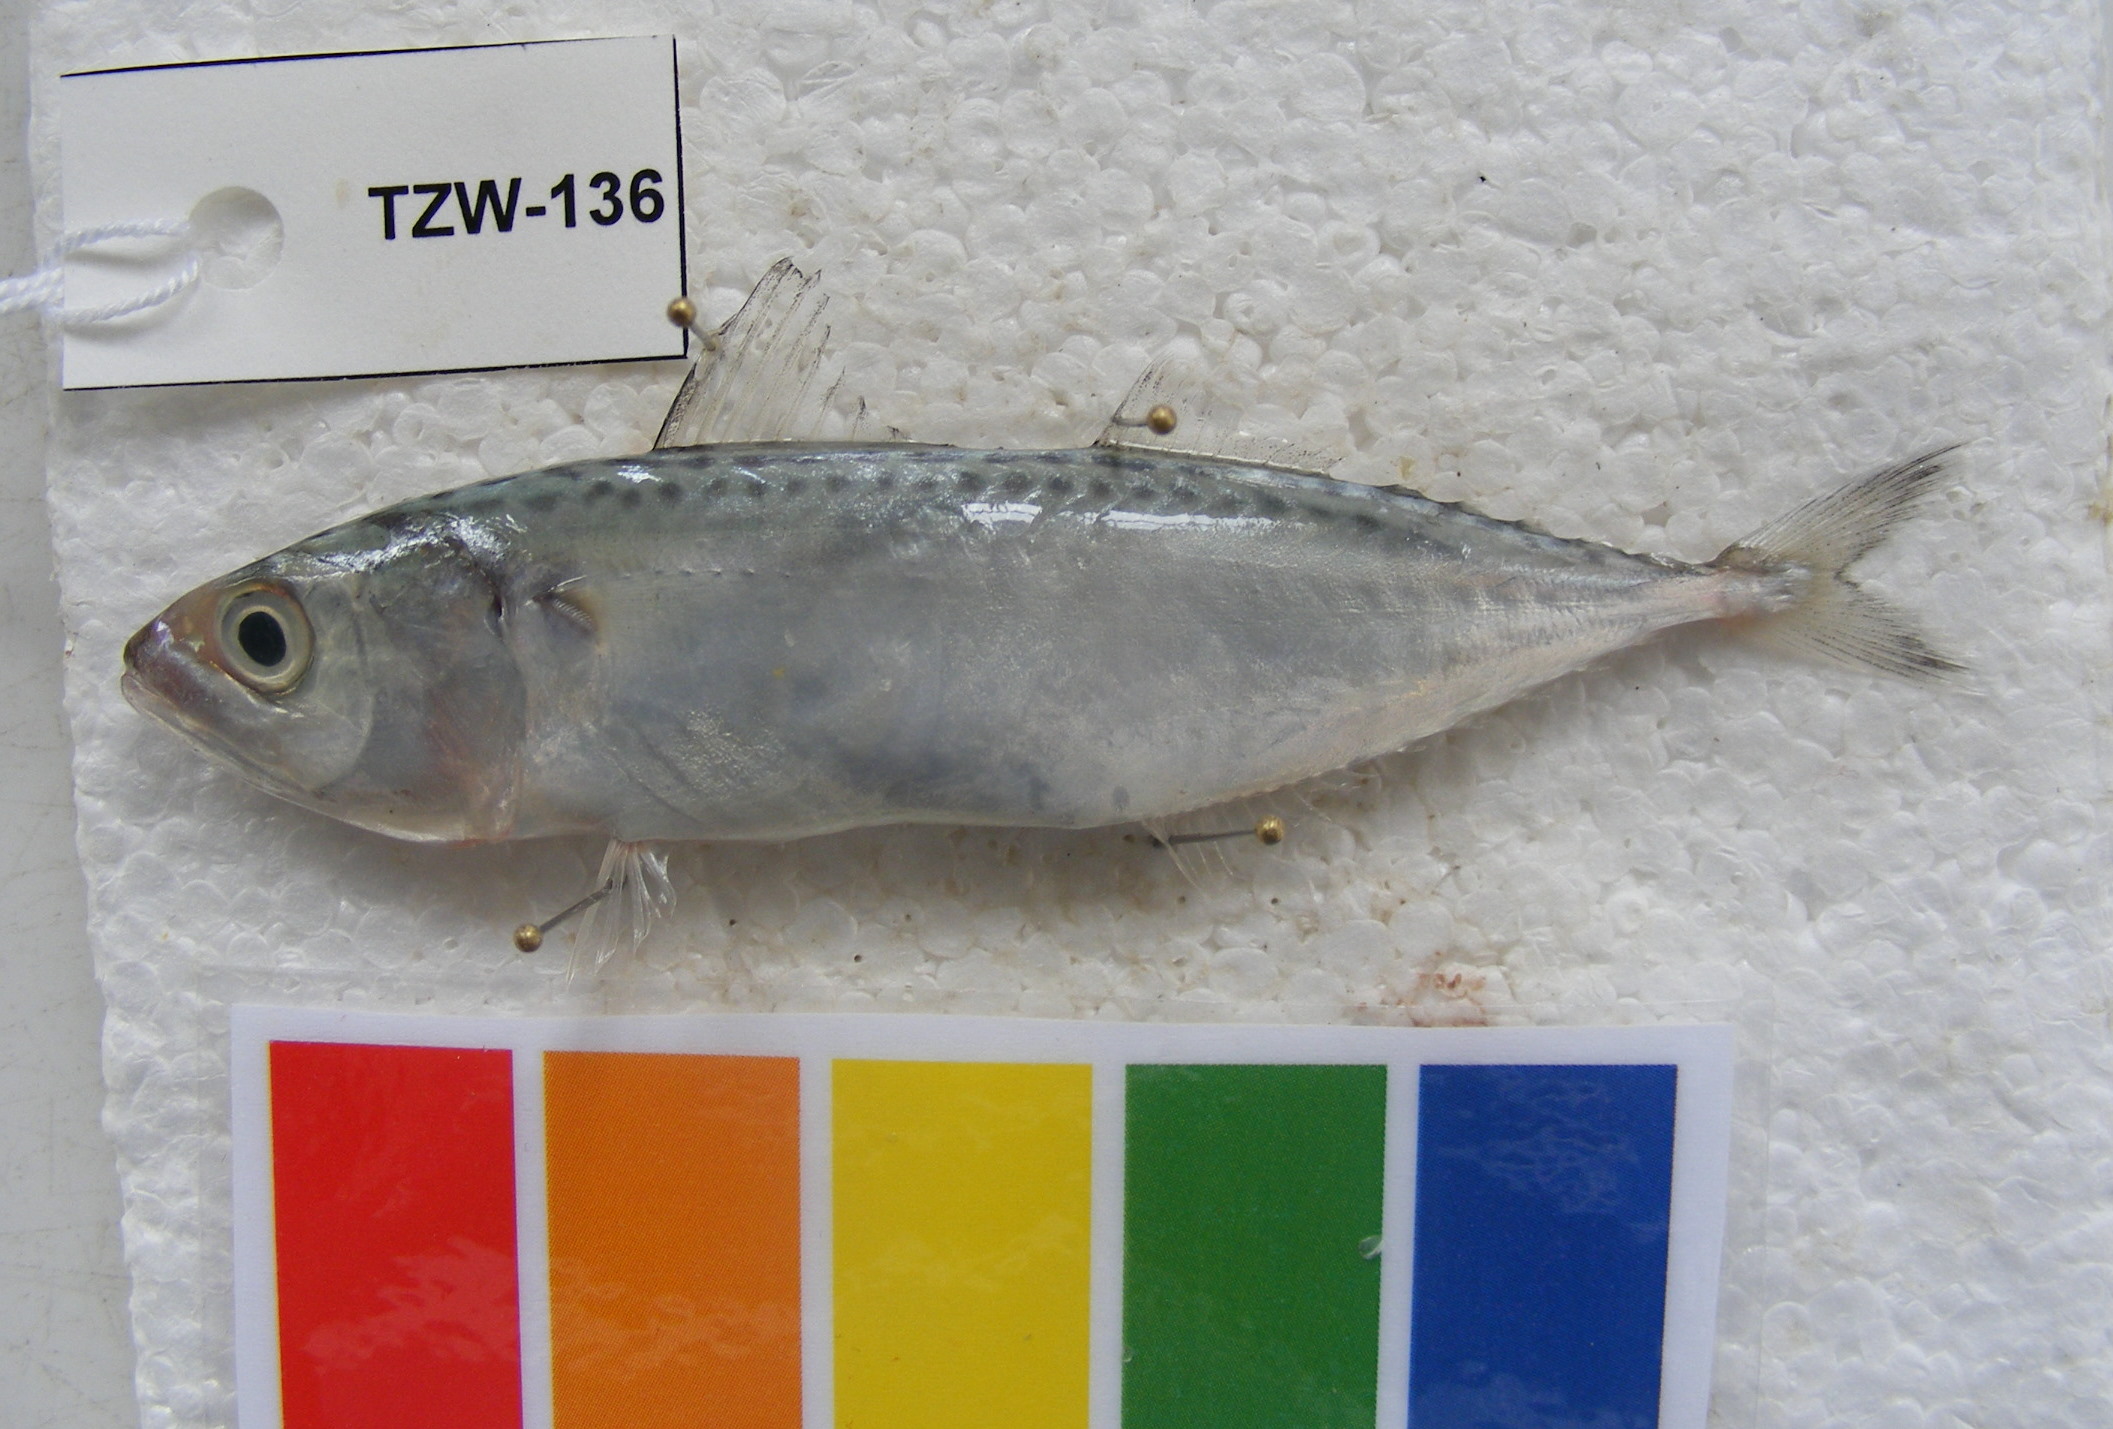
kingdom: Animalia
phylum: Chordata
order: Perciformes
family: Scombridae
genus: Scomber
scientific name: Scomber japonicus
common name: Chub mackerel
